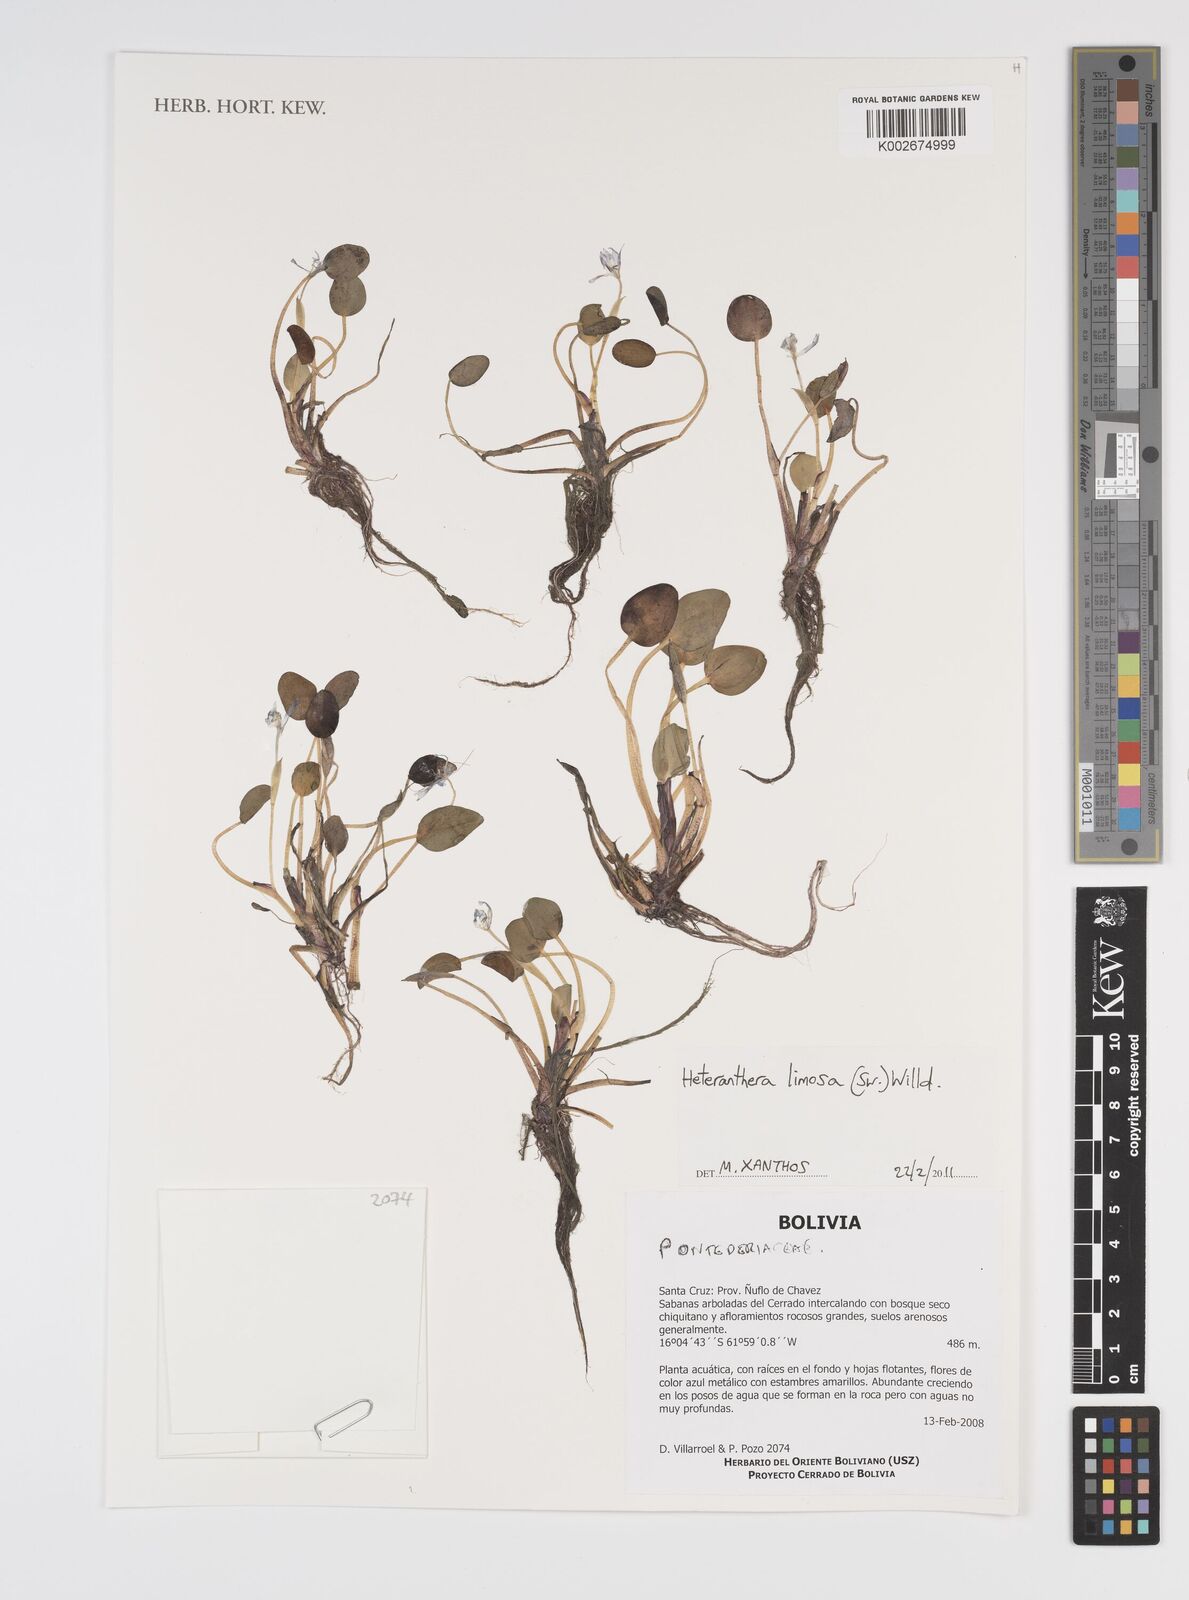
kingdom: Plantae
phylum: Tracheophyta
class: Liliopsida
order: Commelinales
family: Pontederiaceae
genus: Heteranthera
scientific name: Heteranthera limosa
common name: Blue mud-plantain
